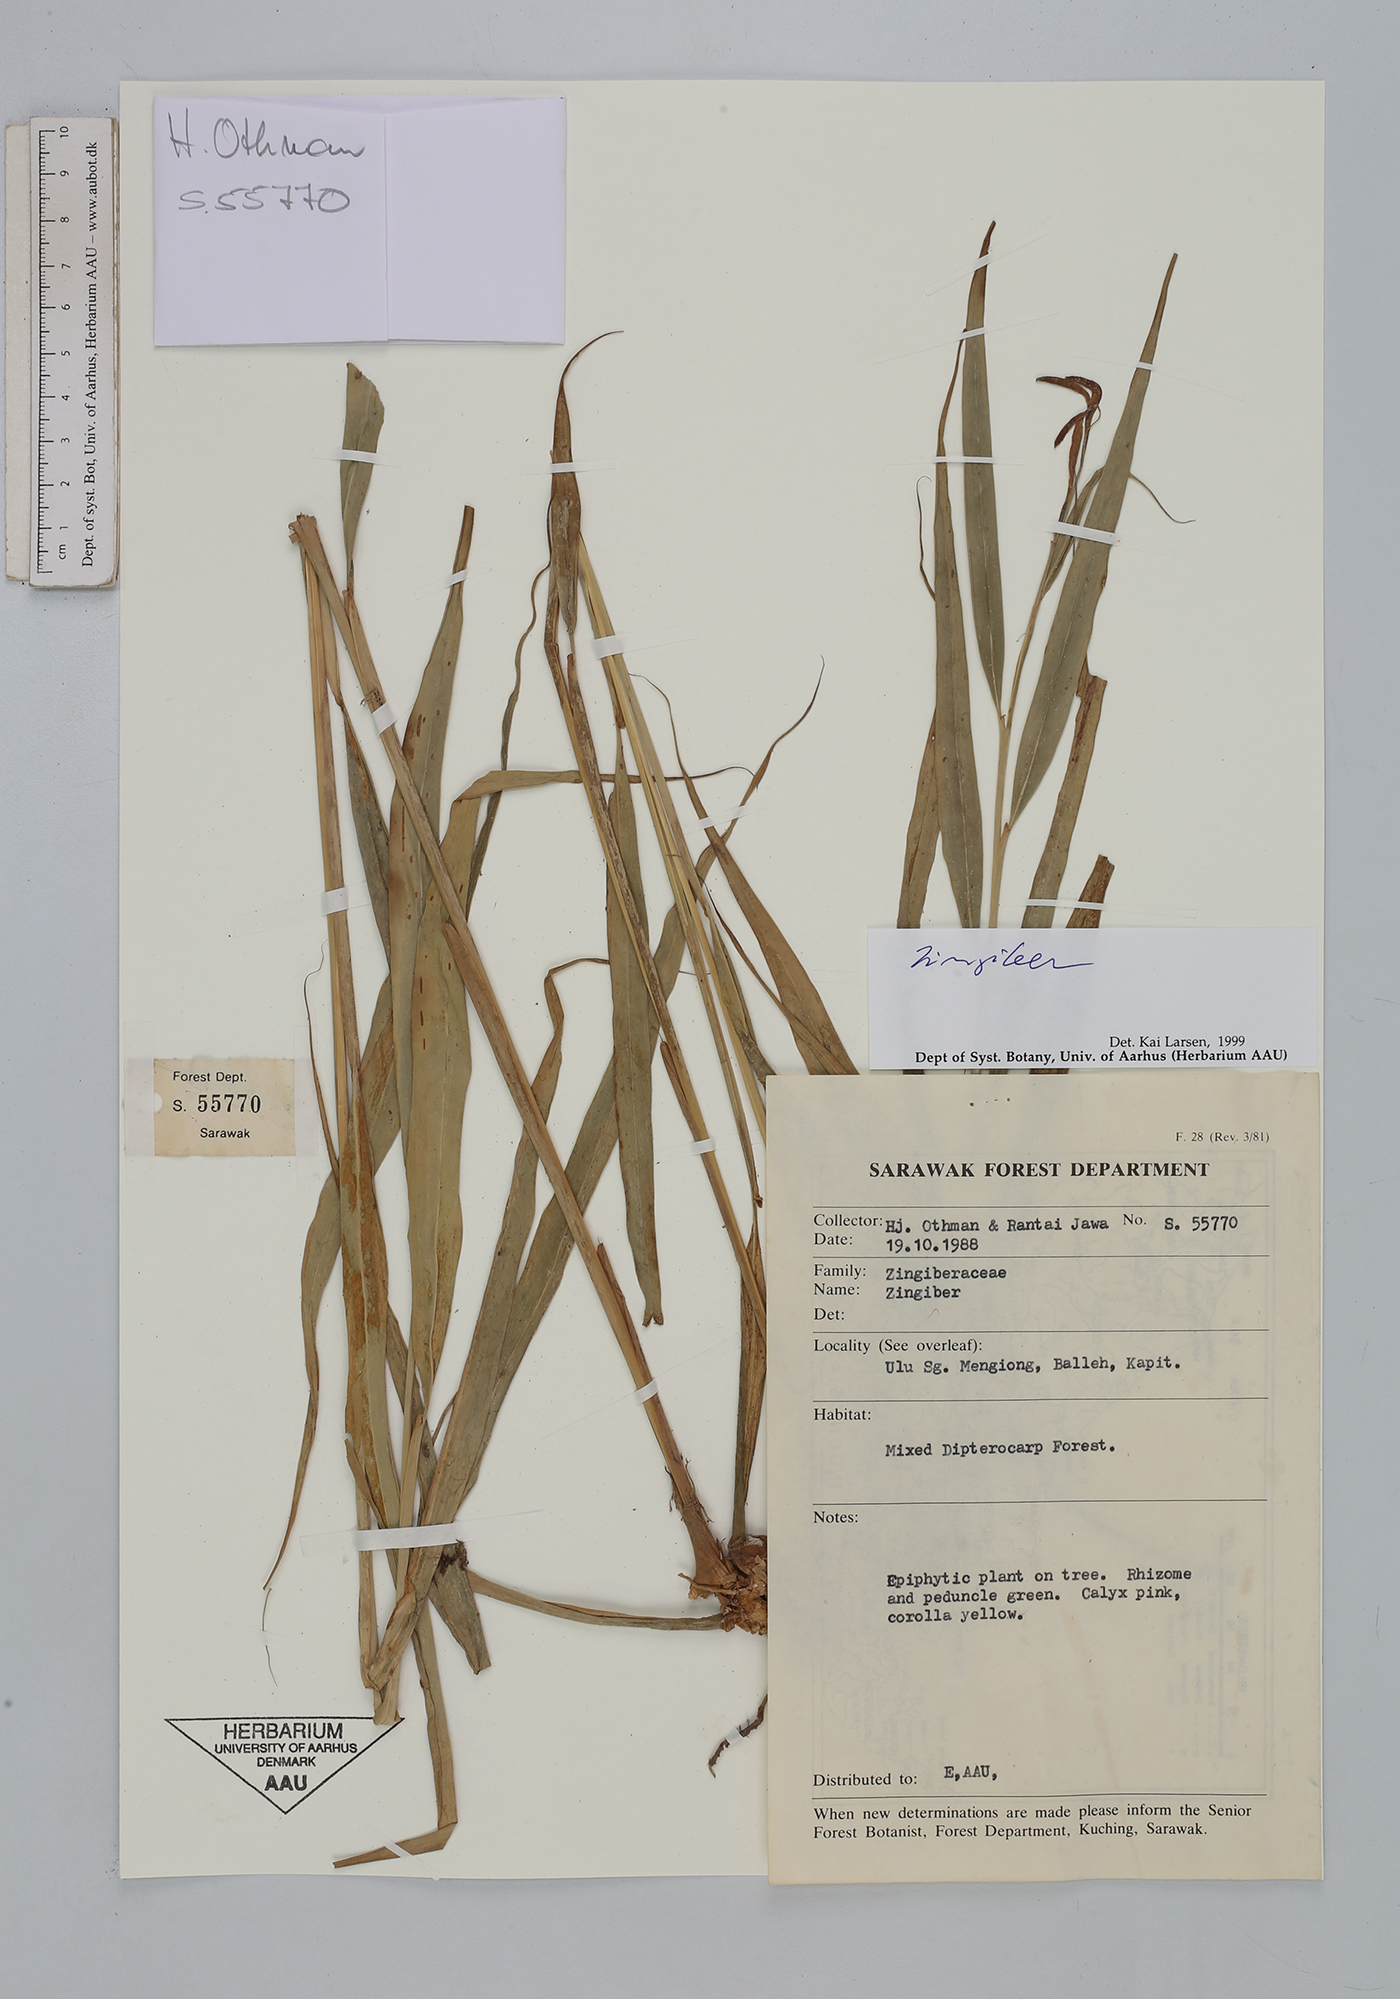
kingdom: Plantae
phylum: Tracheophyta
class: Liliopsida
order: Zingiberales
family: Zingiberaceae
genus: Zingiber
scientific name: Zingiber
